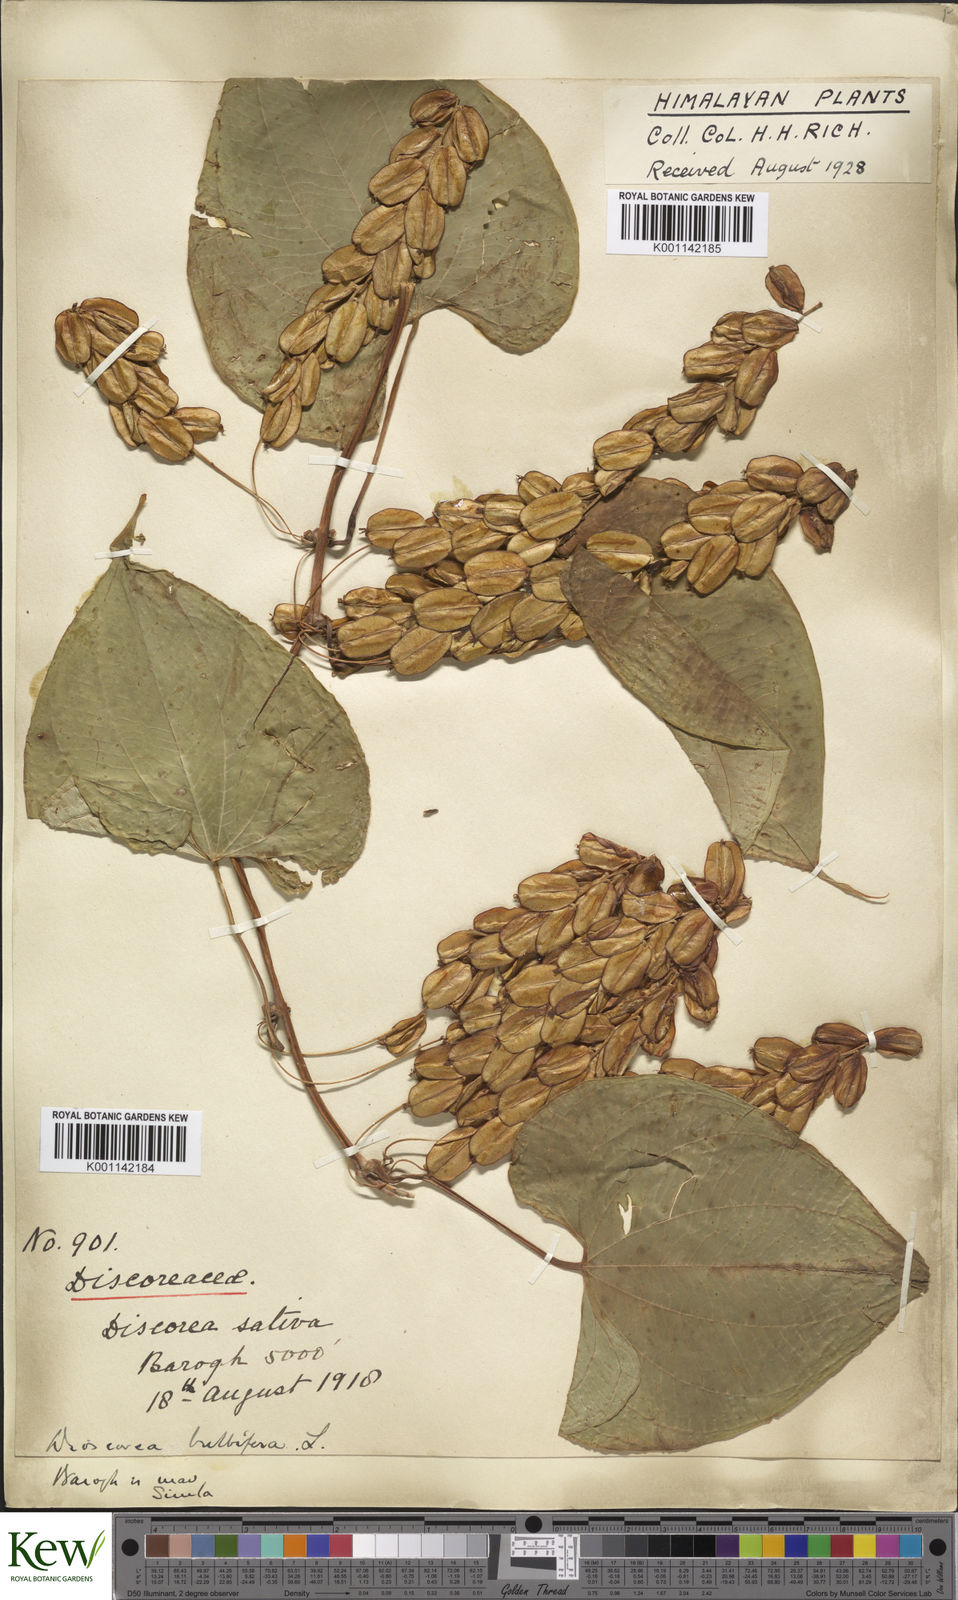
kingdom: Plantae
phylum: Tracheophyta
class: Liliopsida
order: Dioscoreales
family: Dioscoreaceae
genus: Dioscorea
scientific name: Dioscorea bulbifera
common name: Air yam
